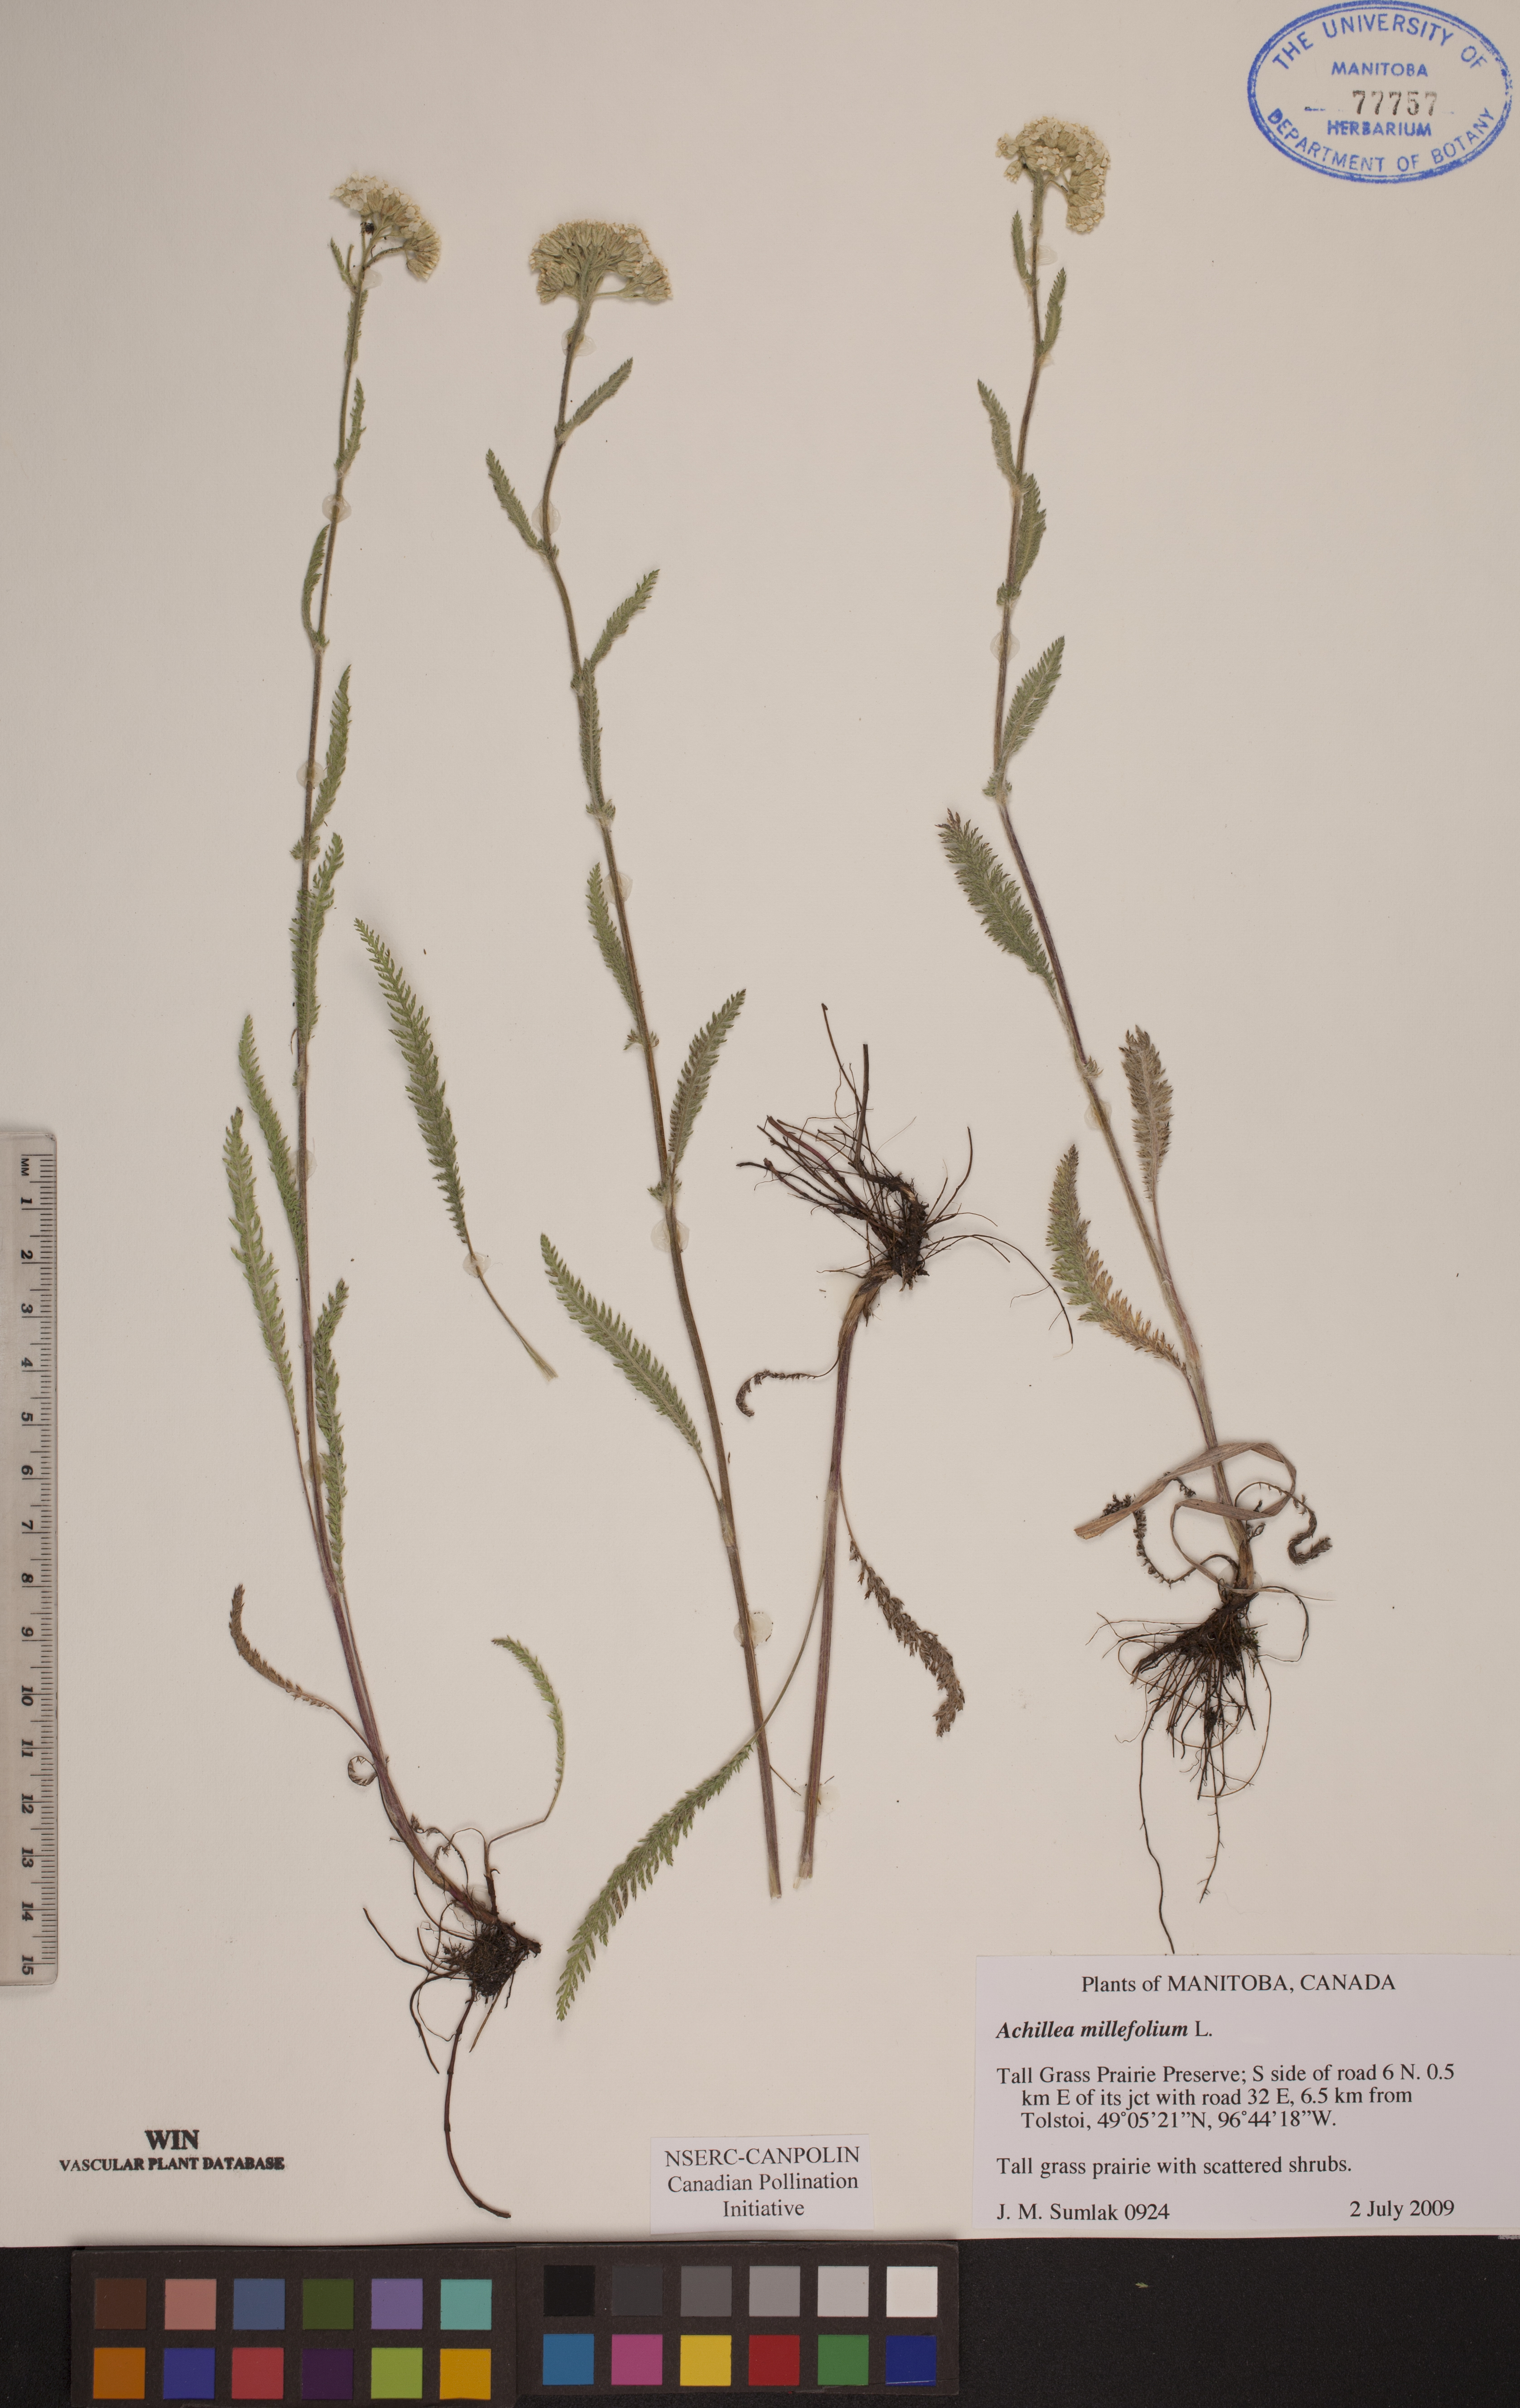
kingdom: Plantae
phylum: Tracheophyta
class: Magnoliopsida
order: Asterales
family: Asteraceae
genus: Achillea
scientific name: Achillea millefolium
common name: Yarrow
